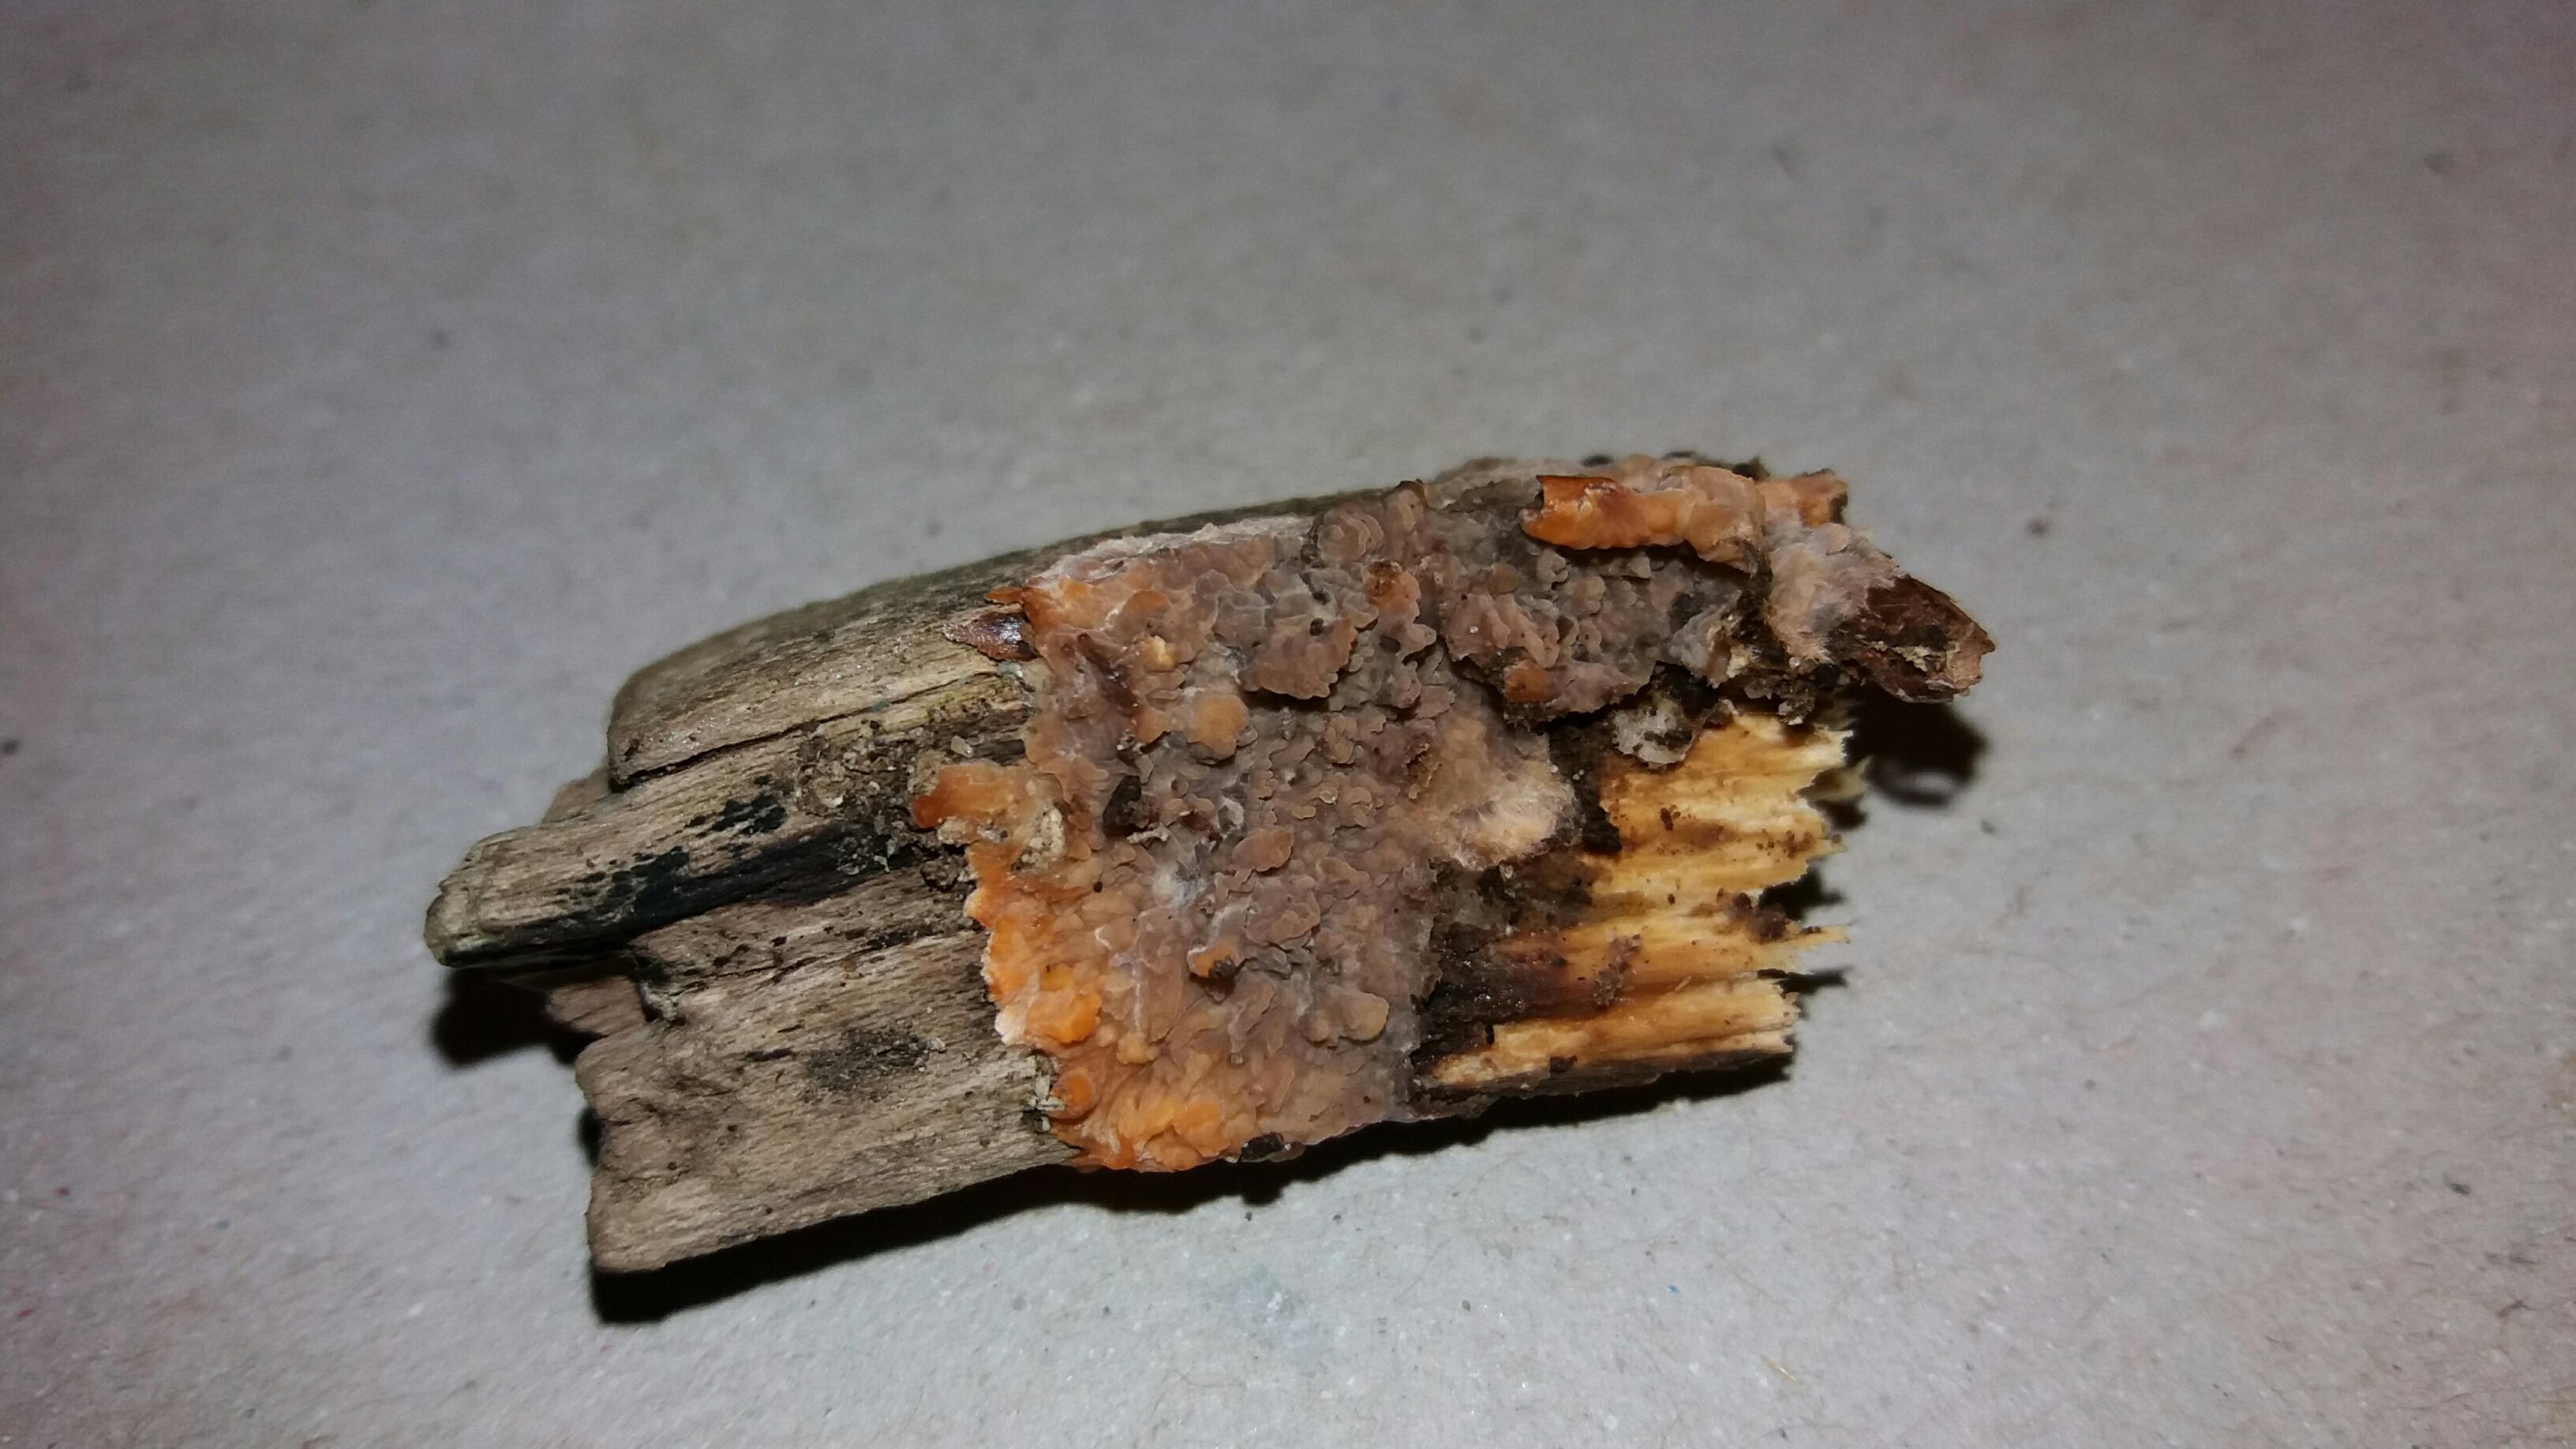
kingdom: Fungi
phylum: Basidiomycota
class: Agaricomycetes
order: Polyporales
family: Meruliaceae
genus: Phlebia
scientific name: Phlebia radiata
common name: stråle-åresvamp
